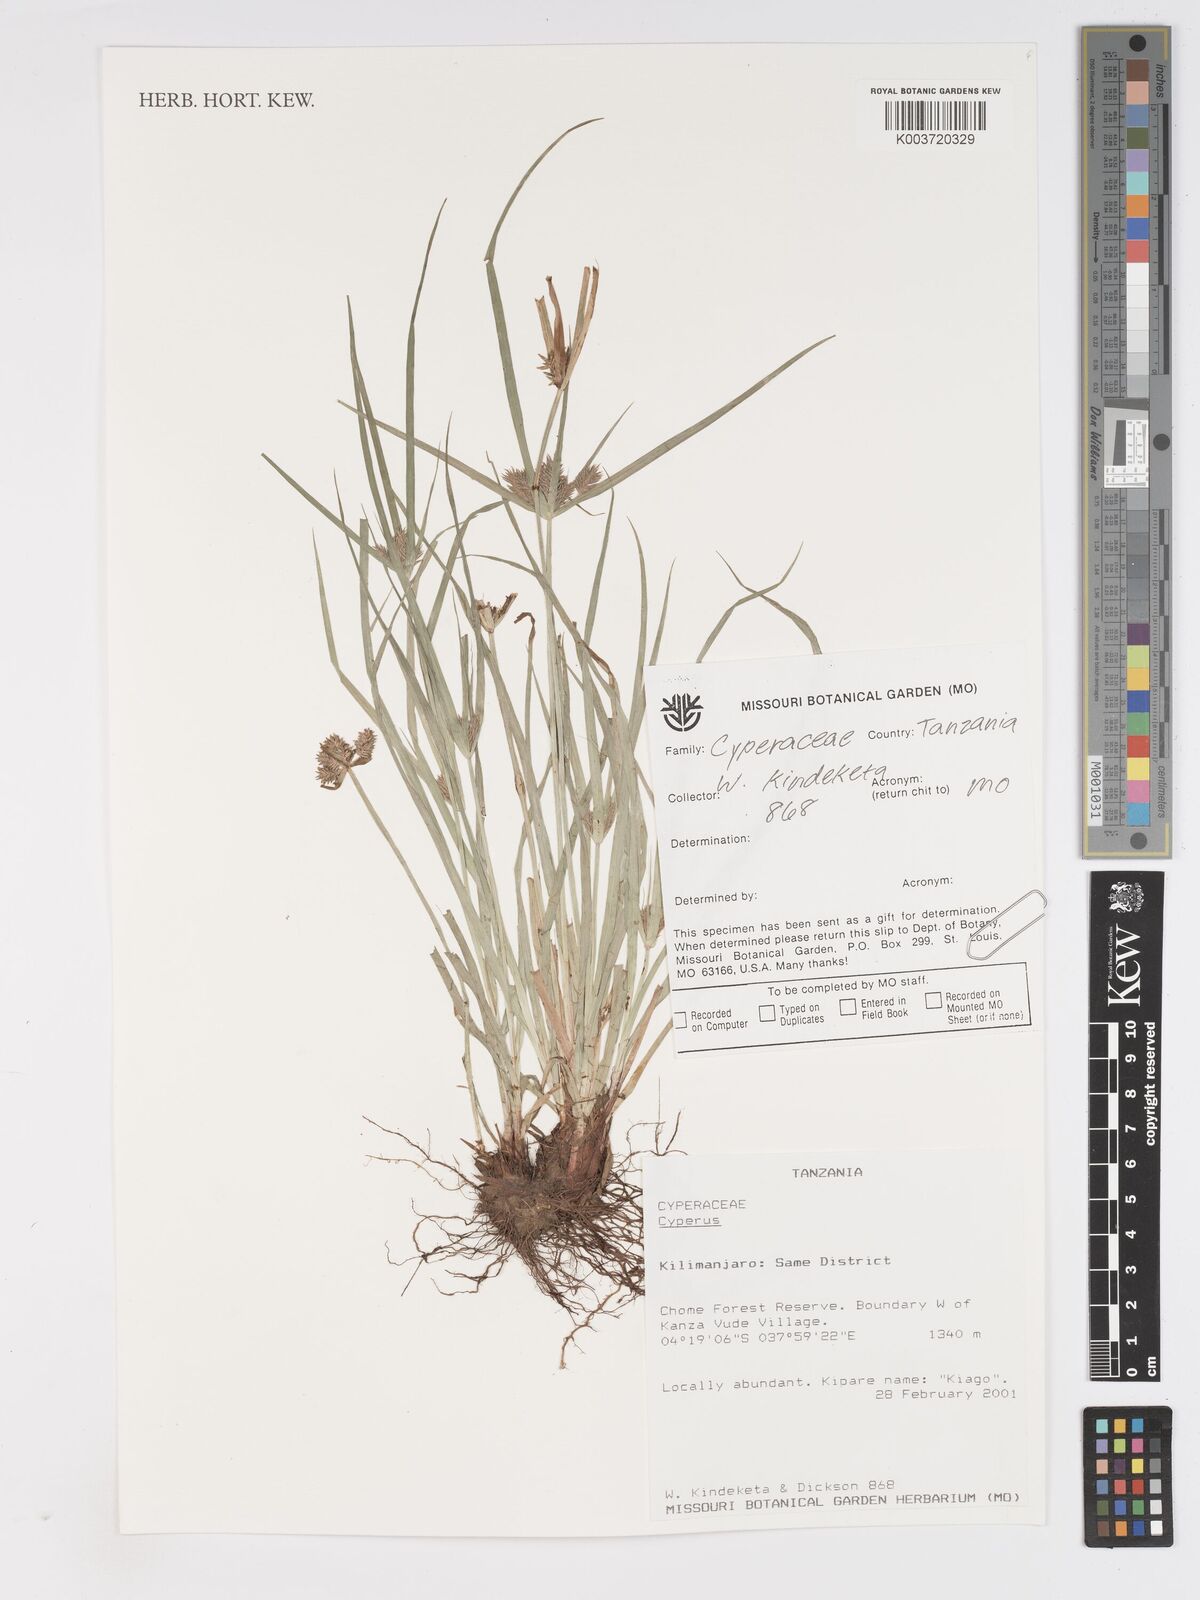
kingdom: Plantae
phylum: Tracheophyta
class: Liliopsida
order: Poales
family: Cyperaceae
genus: Cyperus
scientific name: Cyperus
